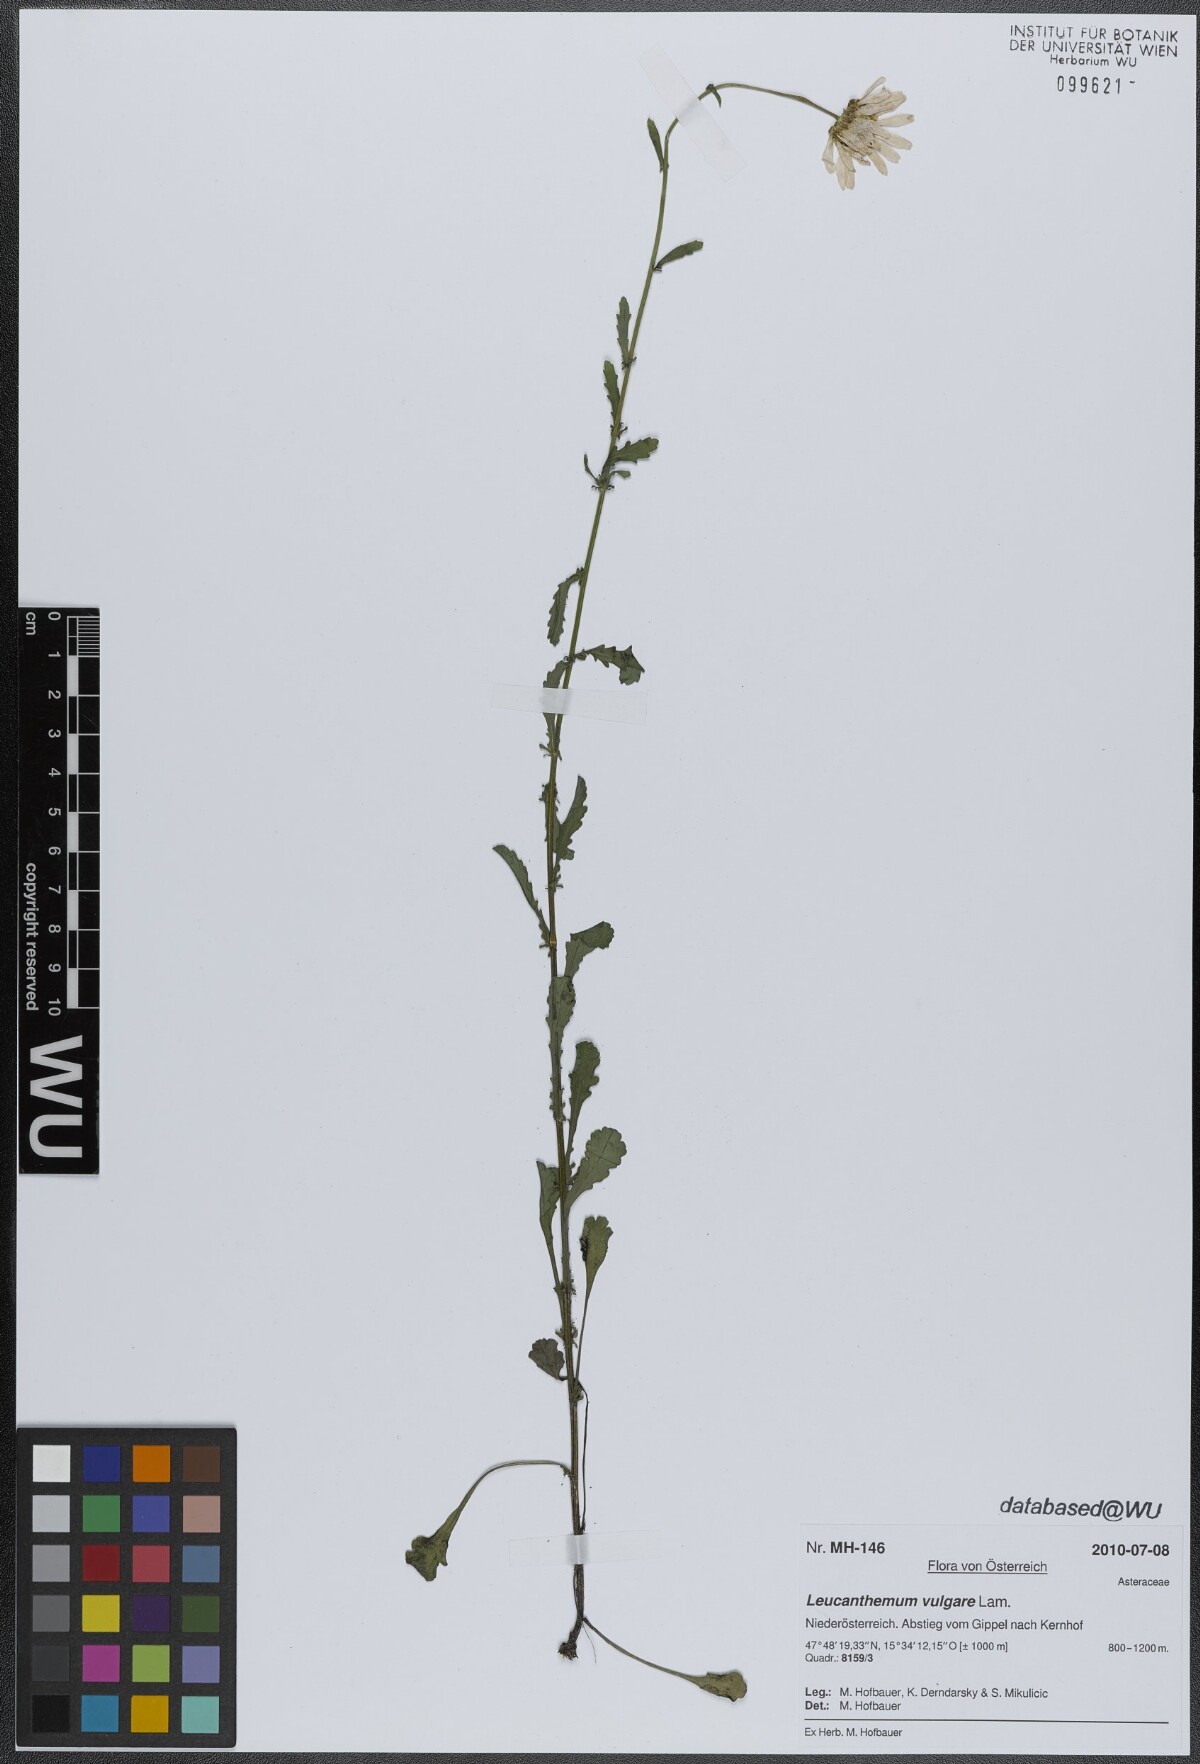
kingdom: Plantae
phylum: Tracheophyta
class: Magnoliopsida
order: Asterales
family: Asteraceae
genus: Leucanthemum
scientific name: Leucanthemum vulgare
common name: Oxeye daisy
